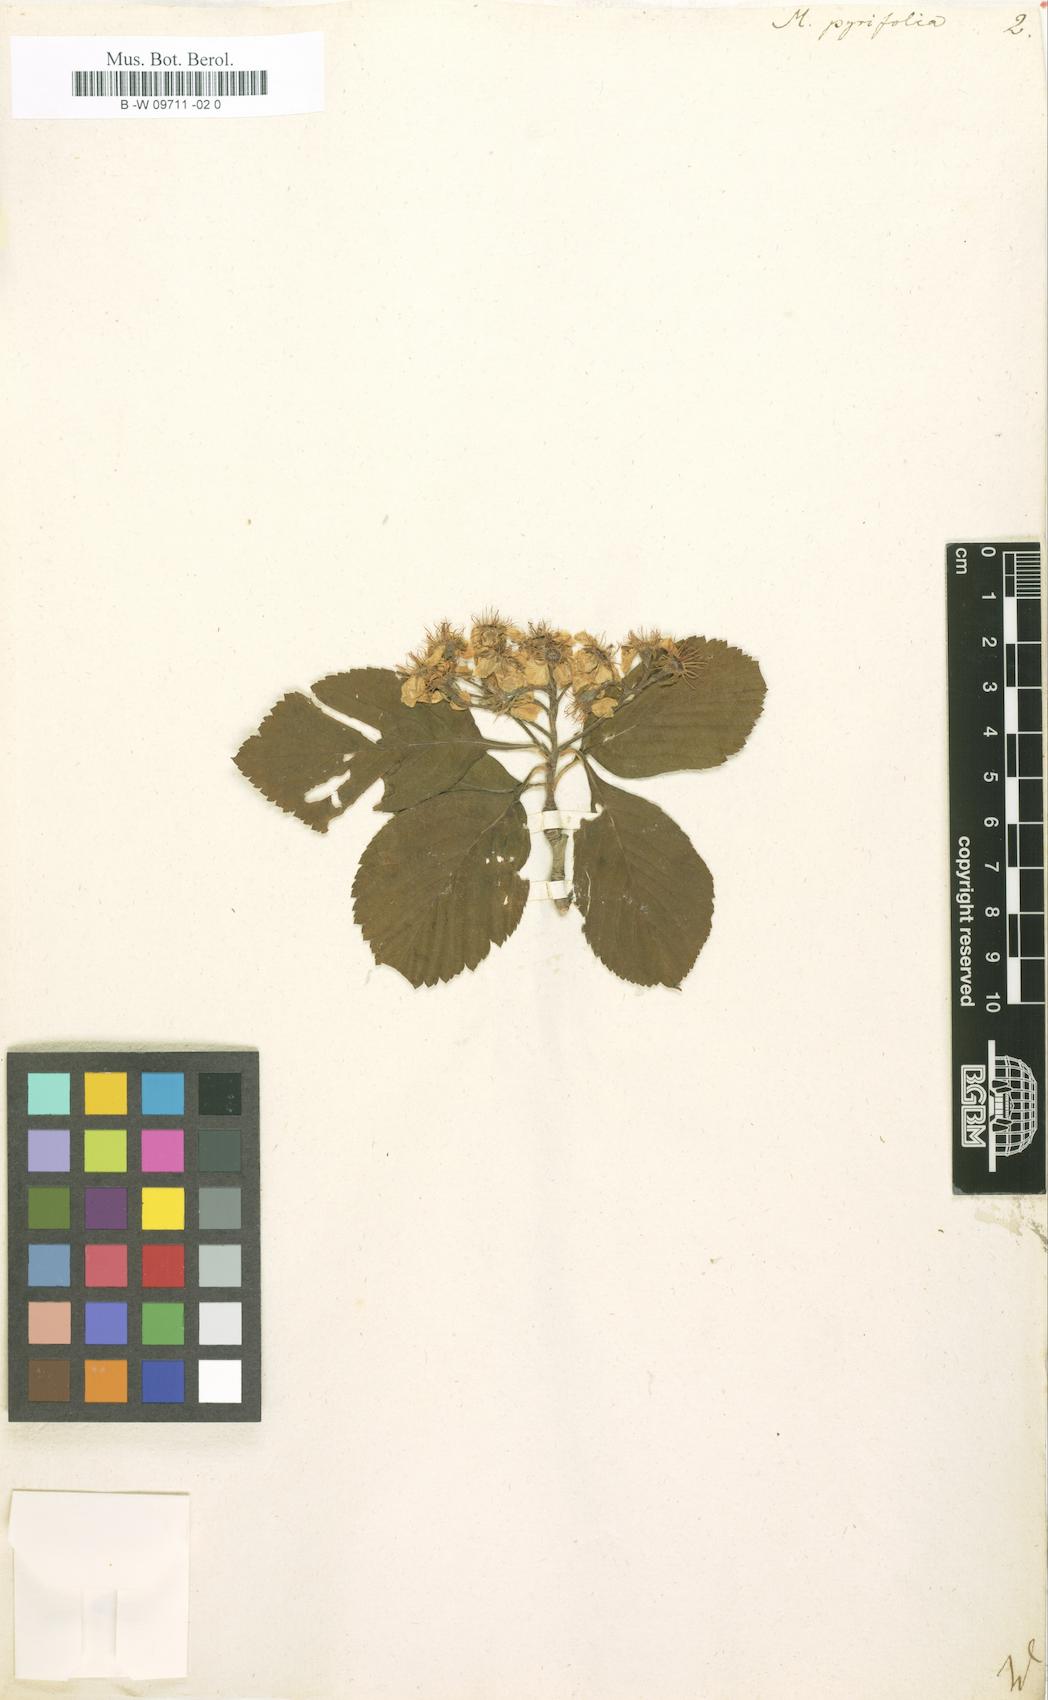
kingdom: Plantae
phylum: Tracheophyta
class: Magnoliopsida
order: Rosales
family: Rosaceae
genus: Crataegus
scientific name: Crataegus
